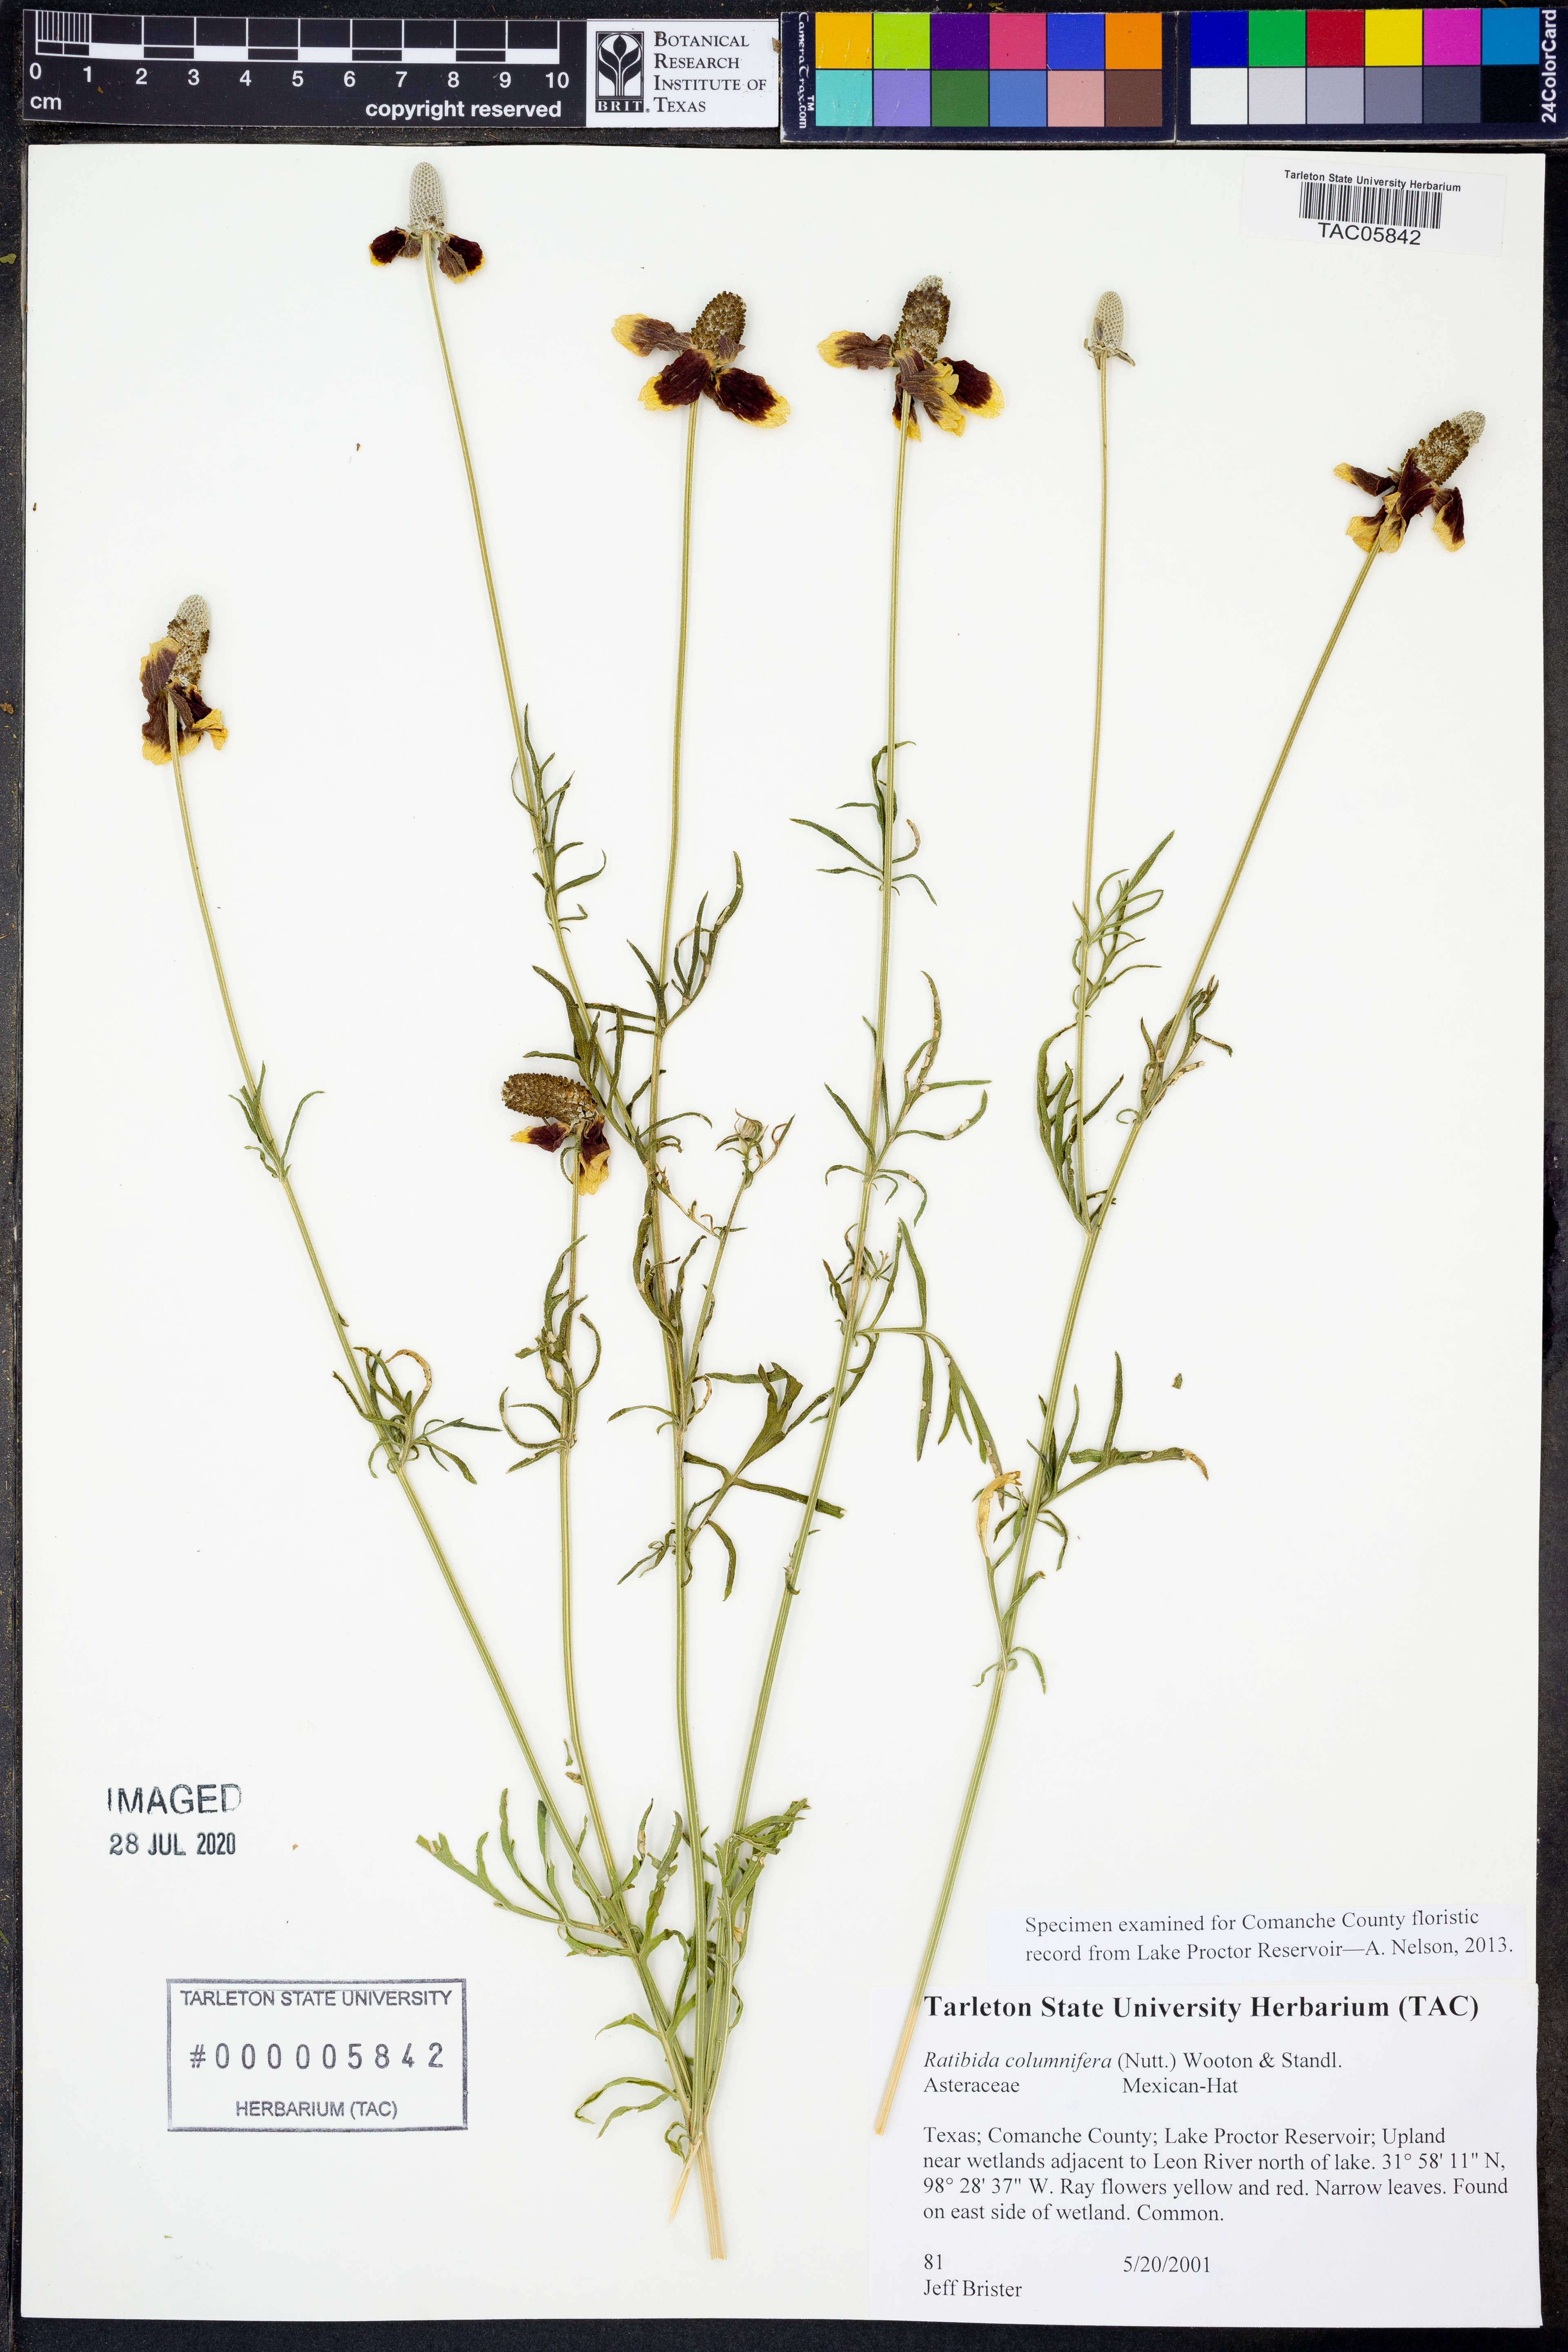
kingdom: Plantae
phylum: Tracheophyta
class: Magnoliopsida
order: Asterales
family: Asteraceae
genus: Ratibida
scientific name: Ratibida columnifera
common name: Prairie coneflower
